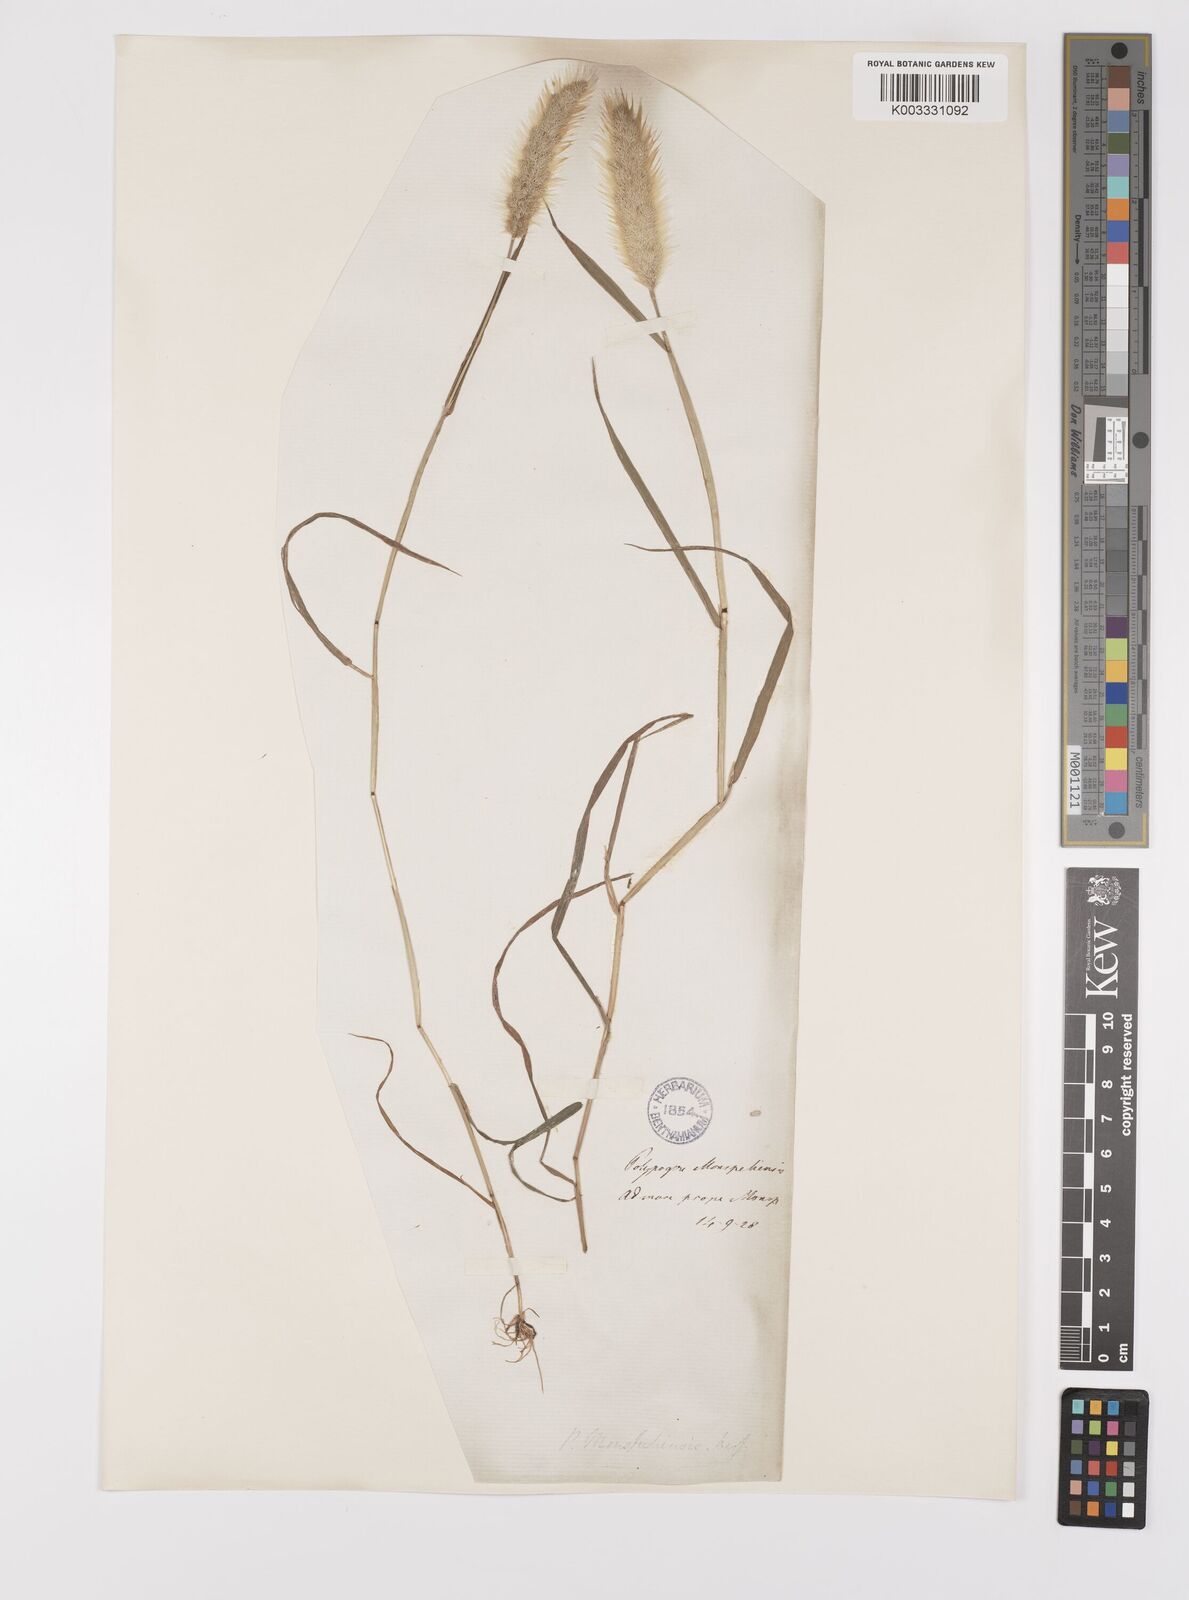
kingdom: Plantae
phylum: Tracheophyta
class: Liliopsida
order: Poales
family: Poaceae
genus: Polypogon
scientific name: Polypogon monspeliensis
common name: Annual rabbitsfoot grass
